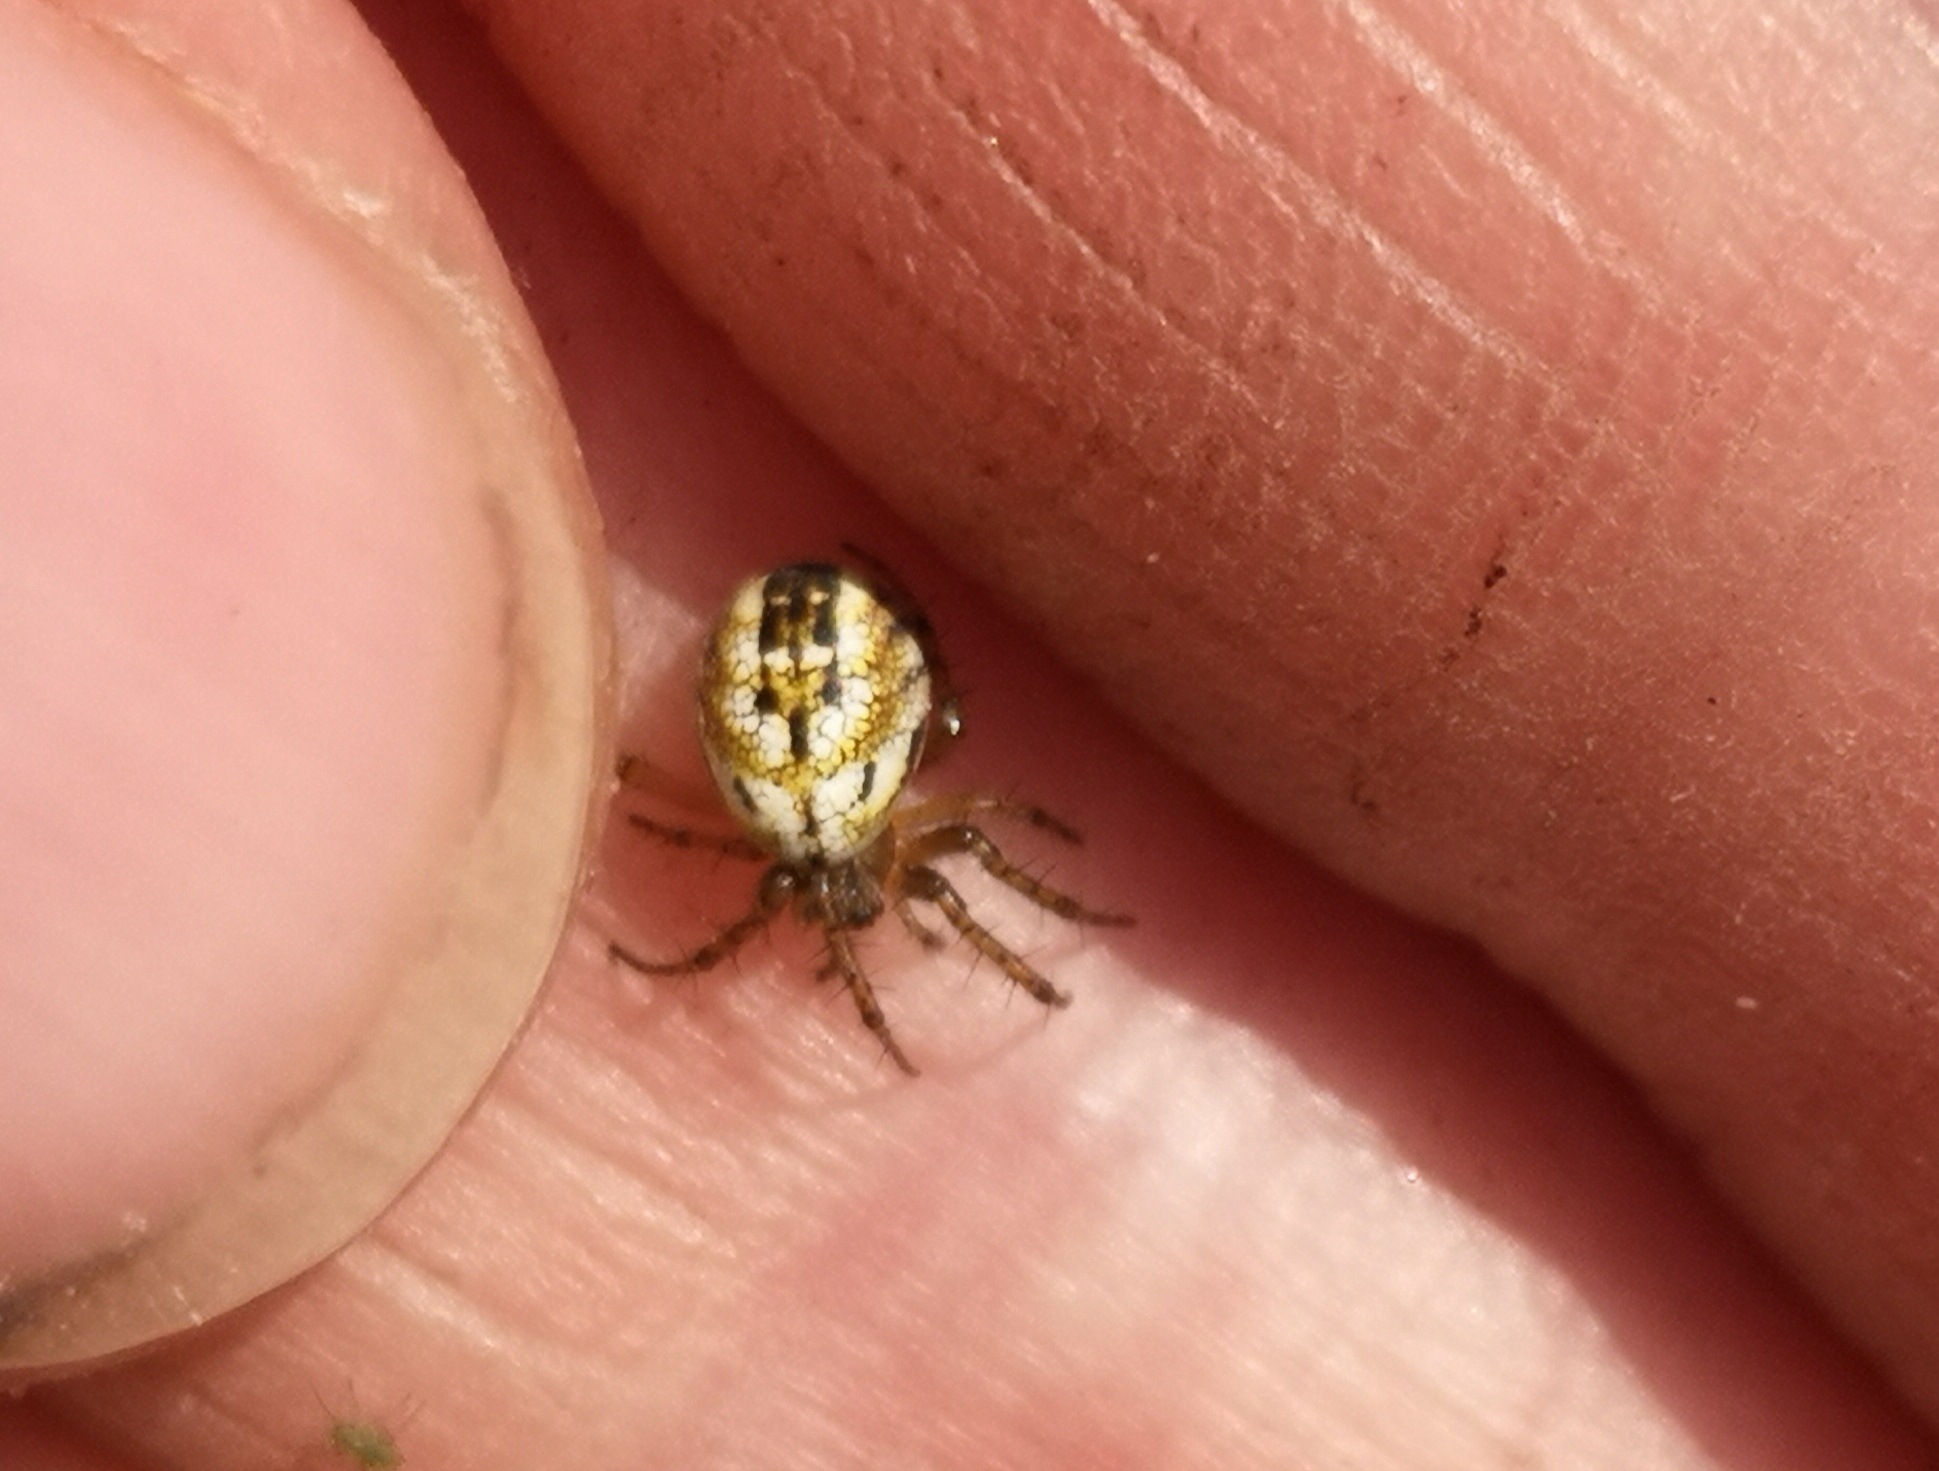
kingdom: Animalia
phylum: Arthropoda
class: Arachnida
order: Araneae
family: Araneidae
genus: Mangora
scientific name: Mangora acalypha
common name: Sortstribet hedehjulspinder
